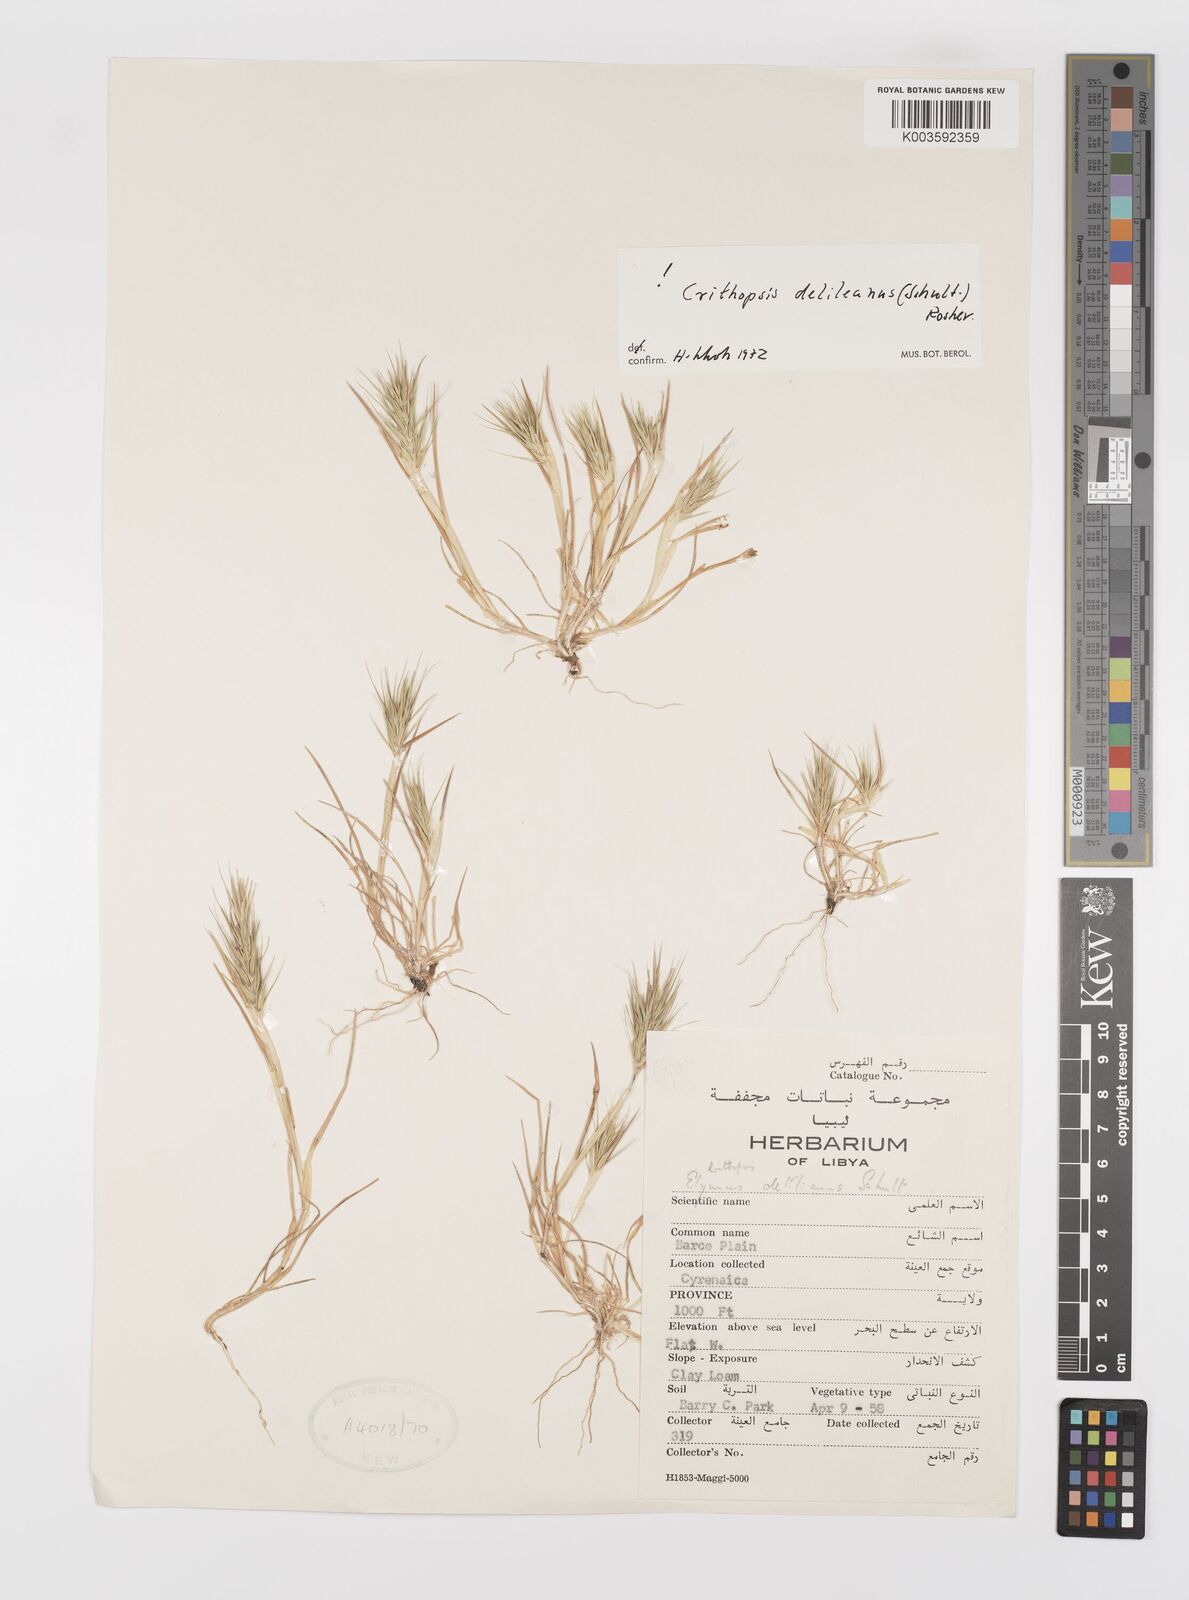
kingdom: Plantae
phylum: Tracheophyta
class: Liliopsida
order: Poales
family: Poaceae
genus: Crithopsis
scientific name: Crithopsis delileana
